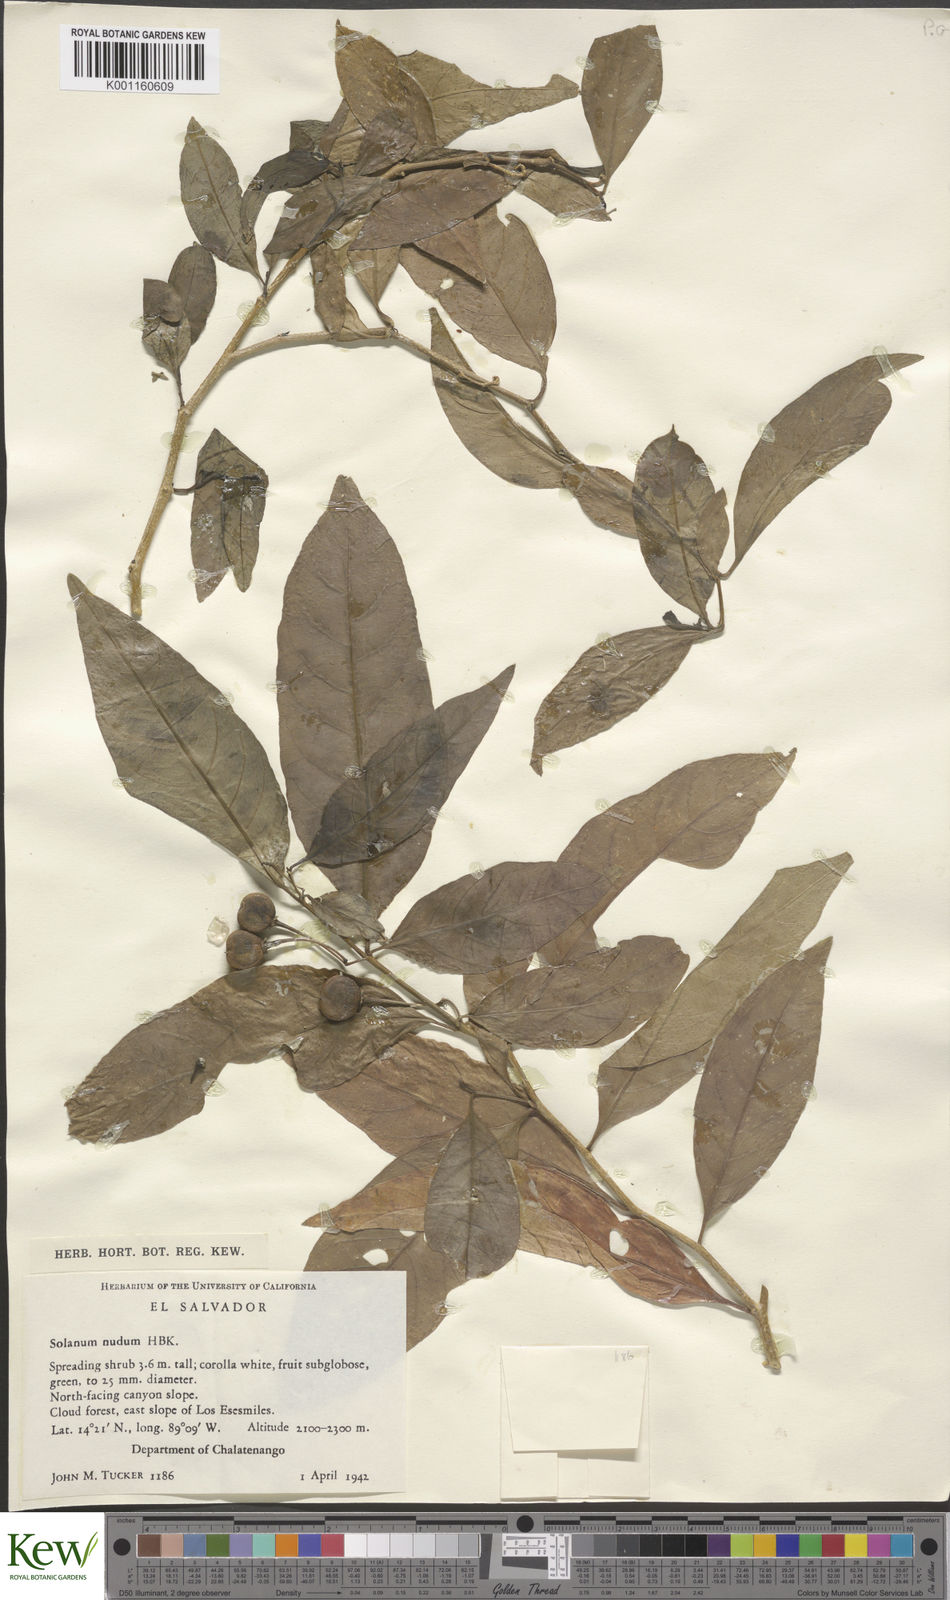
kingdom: Plantae
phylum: Tracheophyta
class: Magnoliopsida
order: Solanales
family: Solanaceae
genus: Solanum
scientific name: Solanum nudum
